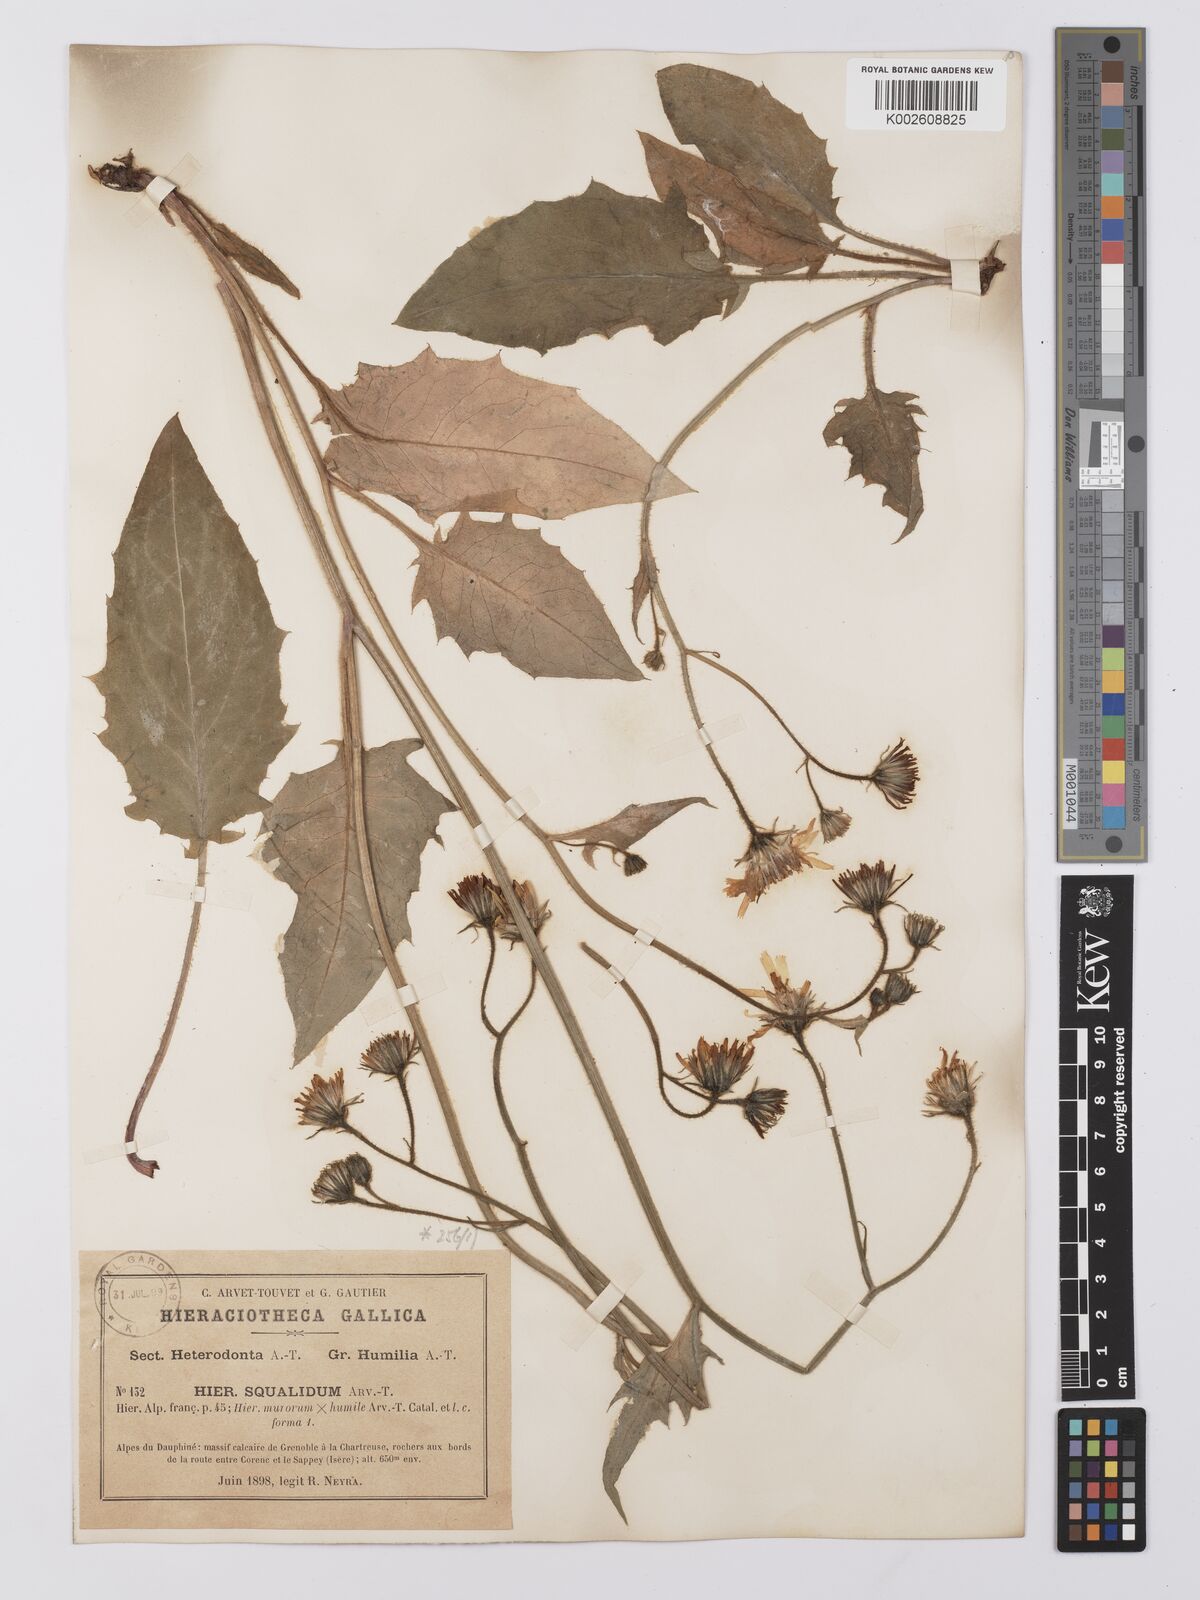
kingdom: Plantae
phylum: Tracheophyta
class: Magnoliopsida
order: Asterales
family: Asteraceae
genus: Hieracium
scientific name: Hieracium cottetii
